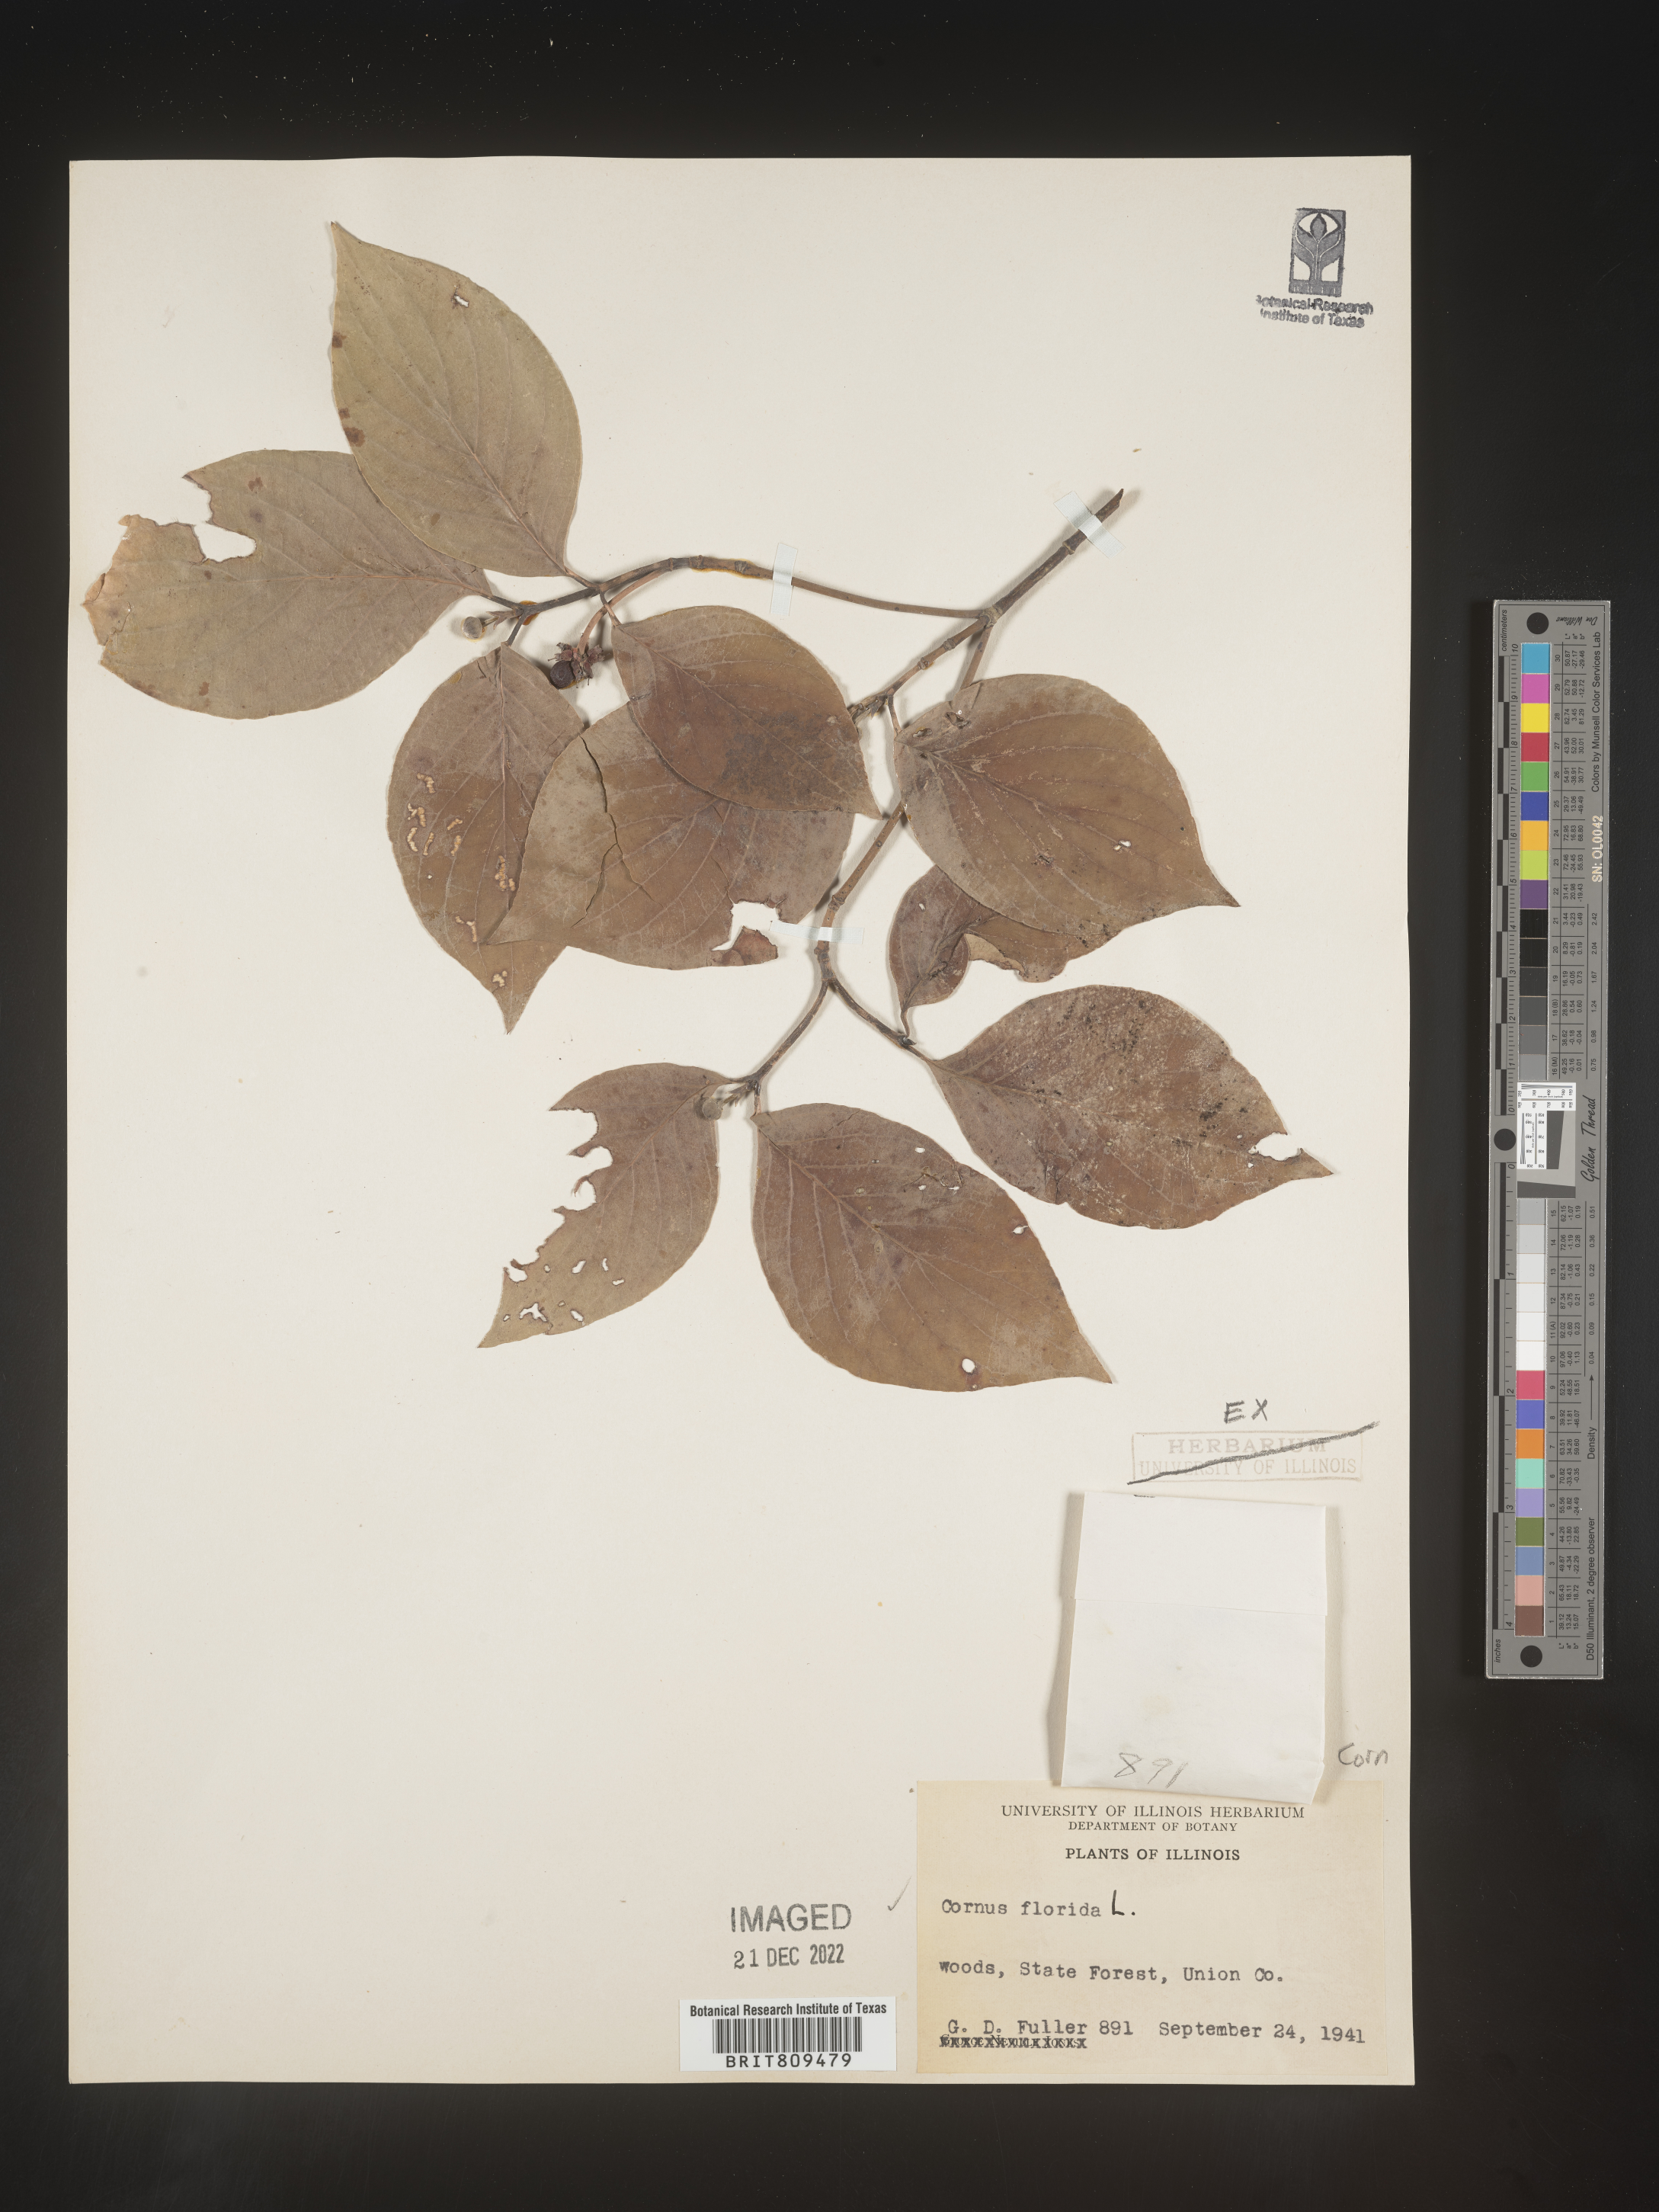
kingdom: Plantae
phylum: Tracheophyta
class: Magnoliopsida
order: Cornales
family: Cornaceae
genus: Cornus
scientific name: Cornus florida
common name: Flowering dogwood
